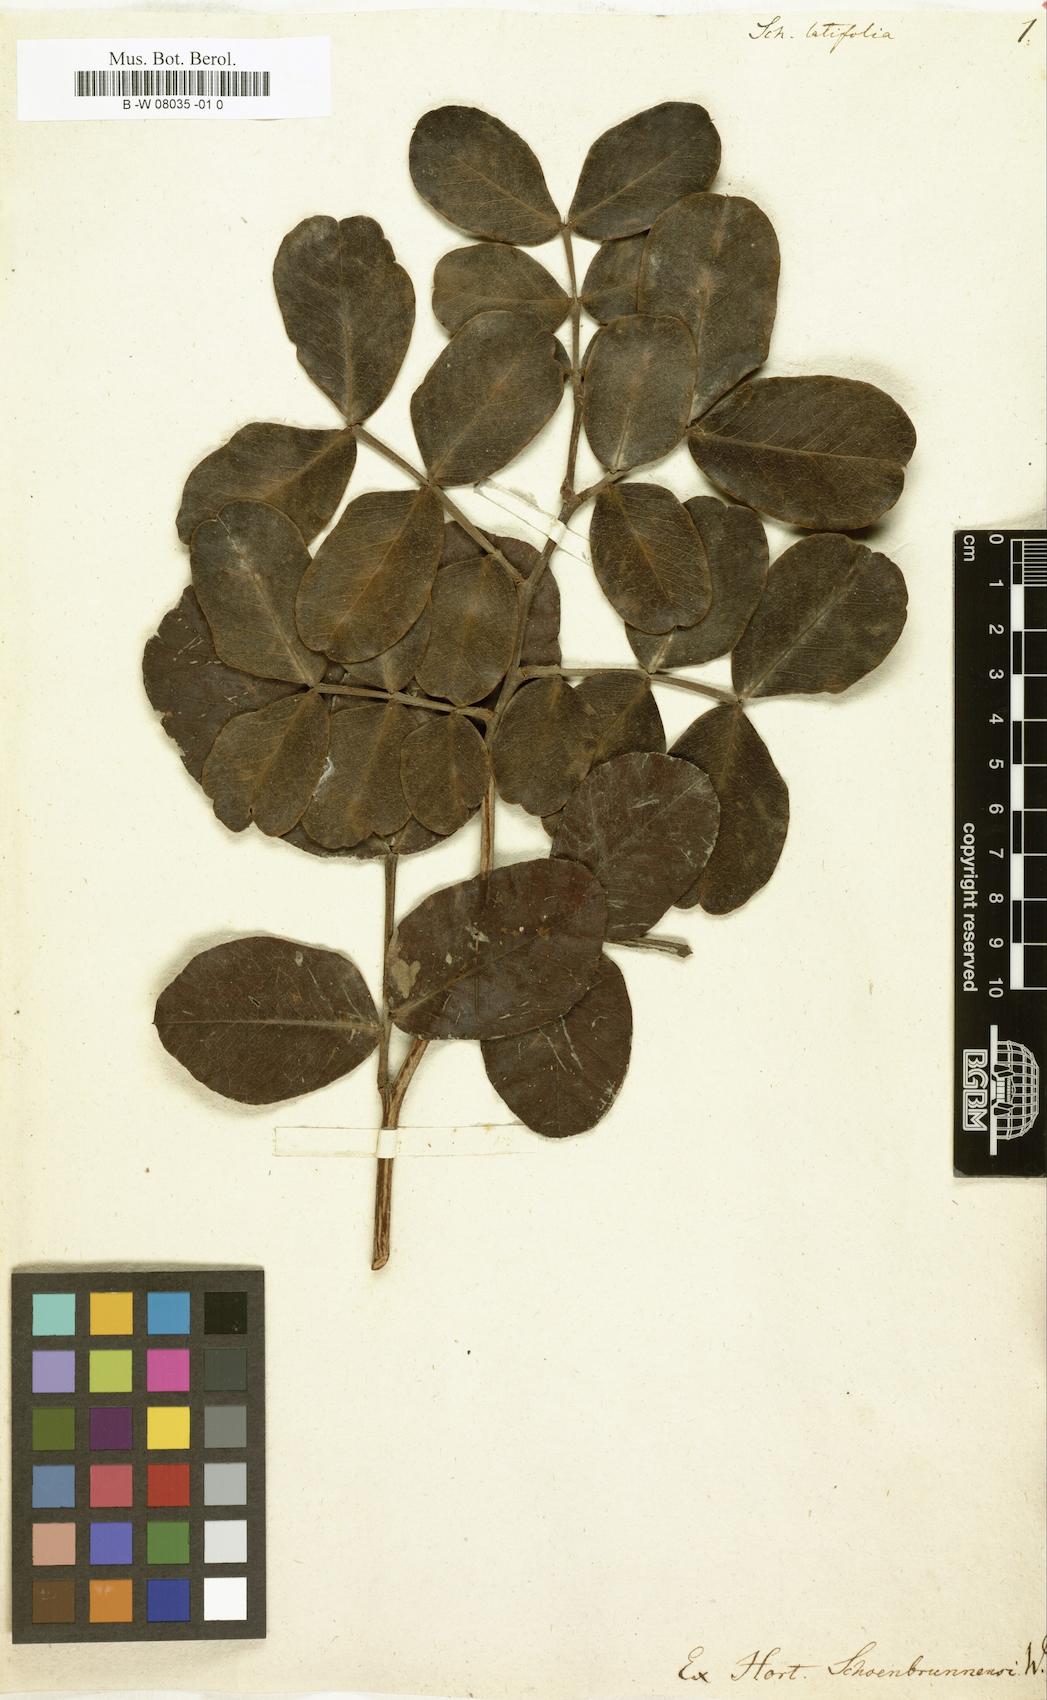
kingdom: Plantae
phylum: Tracheophyta
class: Magnoliopsida
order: Fabales
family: Fabaceae
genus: Schotia
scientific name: Schotia latifolia
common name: Bush boer-bean
